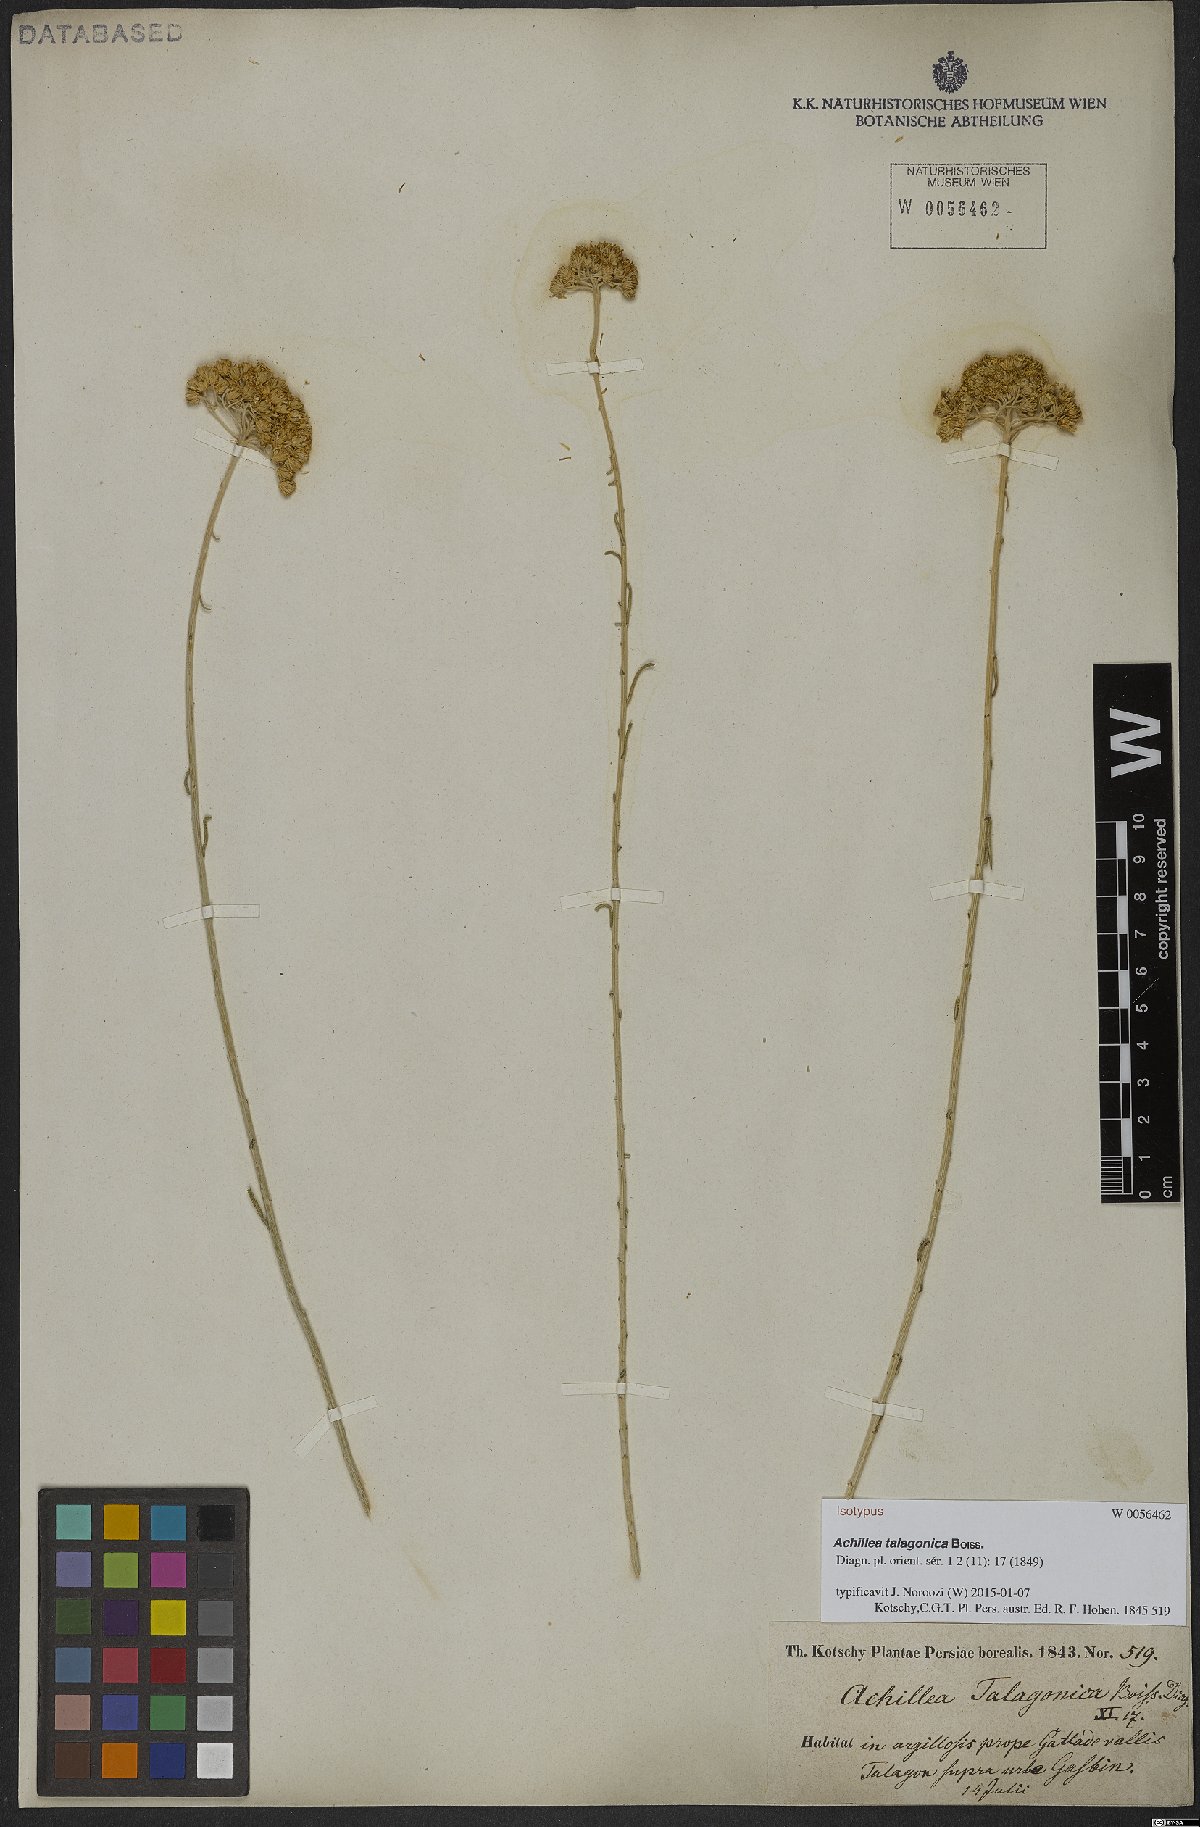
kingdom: Plantae
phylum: Tracheophyta
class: Magnoliopsida
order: Asterales
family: Asteraceae
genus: Achillea
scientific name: Achillea talagonica
